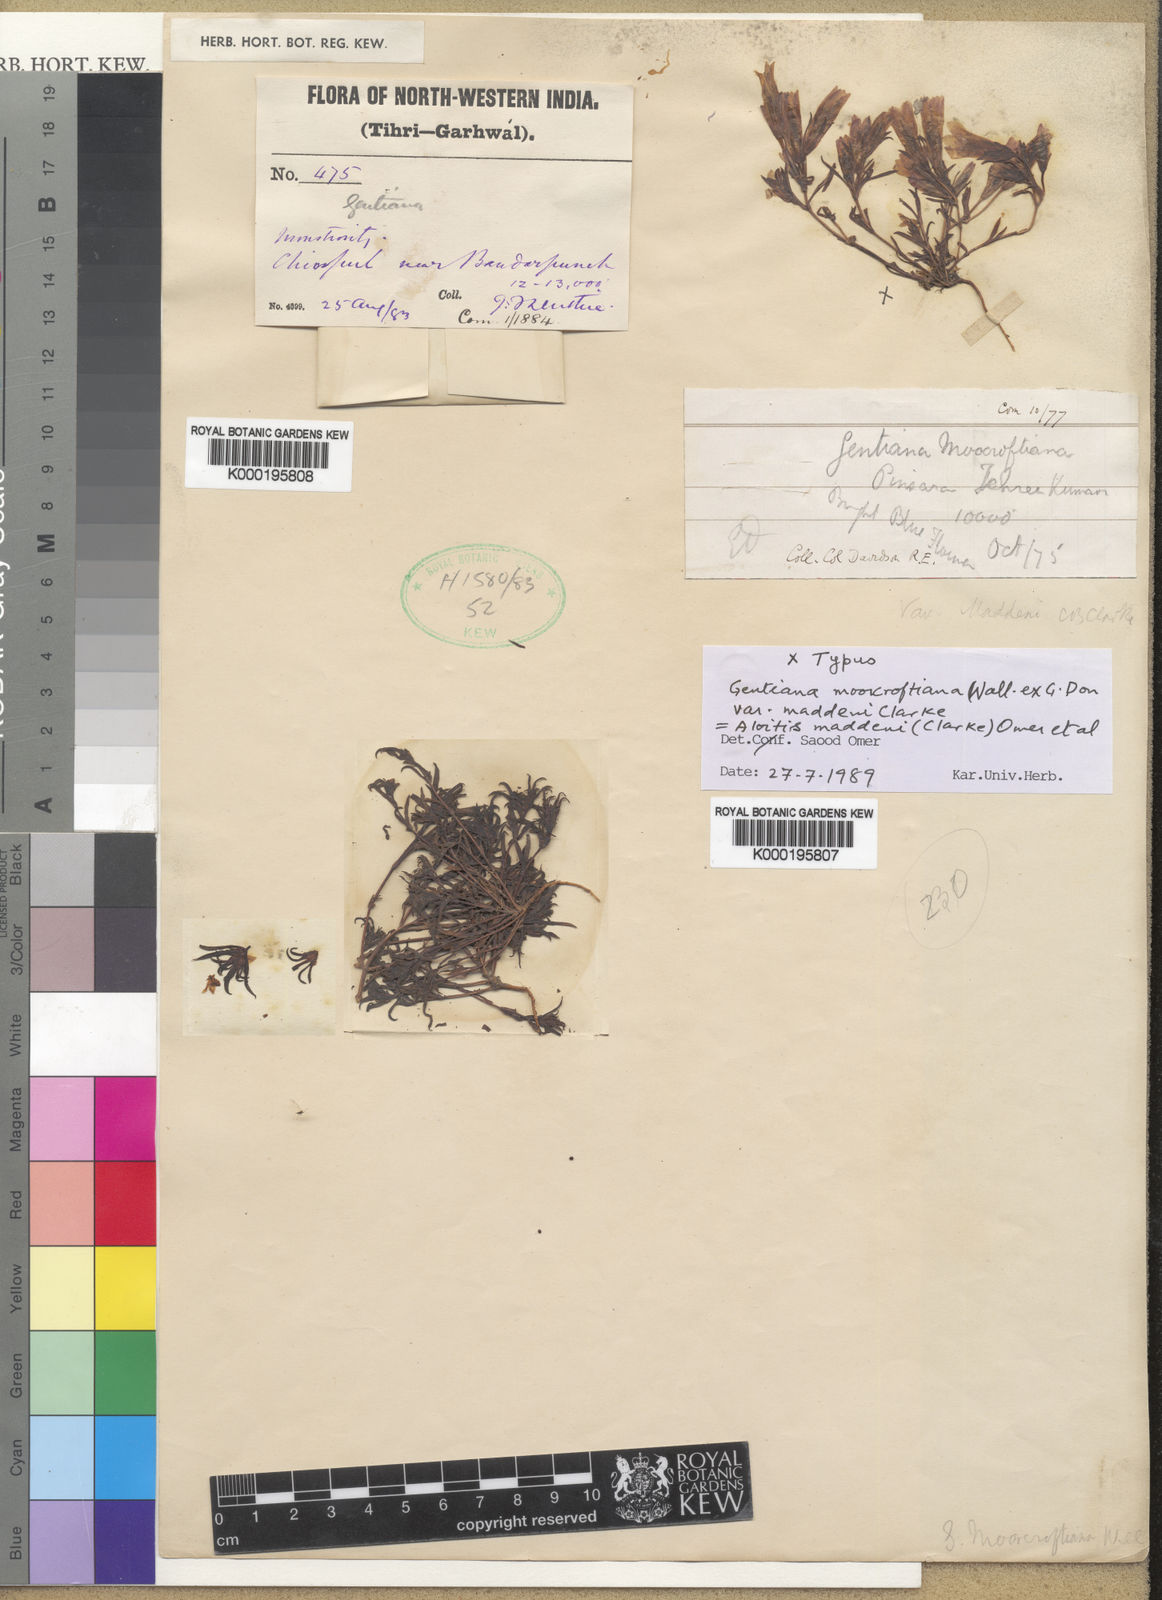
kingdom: Plantae
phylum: Tracheophyta
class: Magnoliopsida
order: Gentianales
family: Gentianaceae
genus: Gentiana
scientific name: Gentiana
